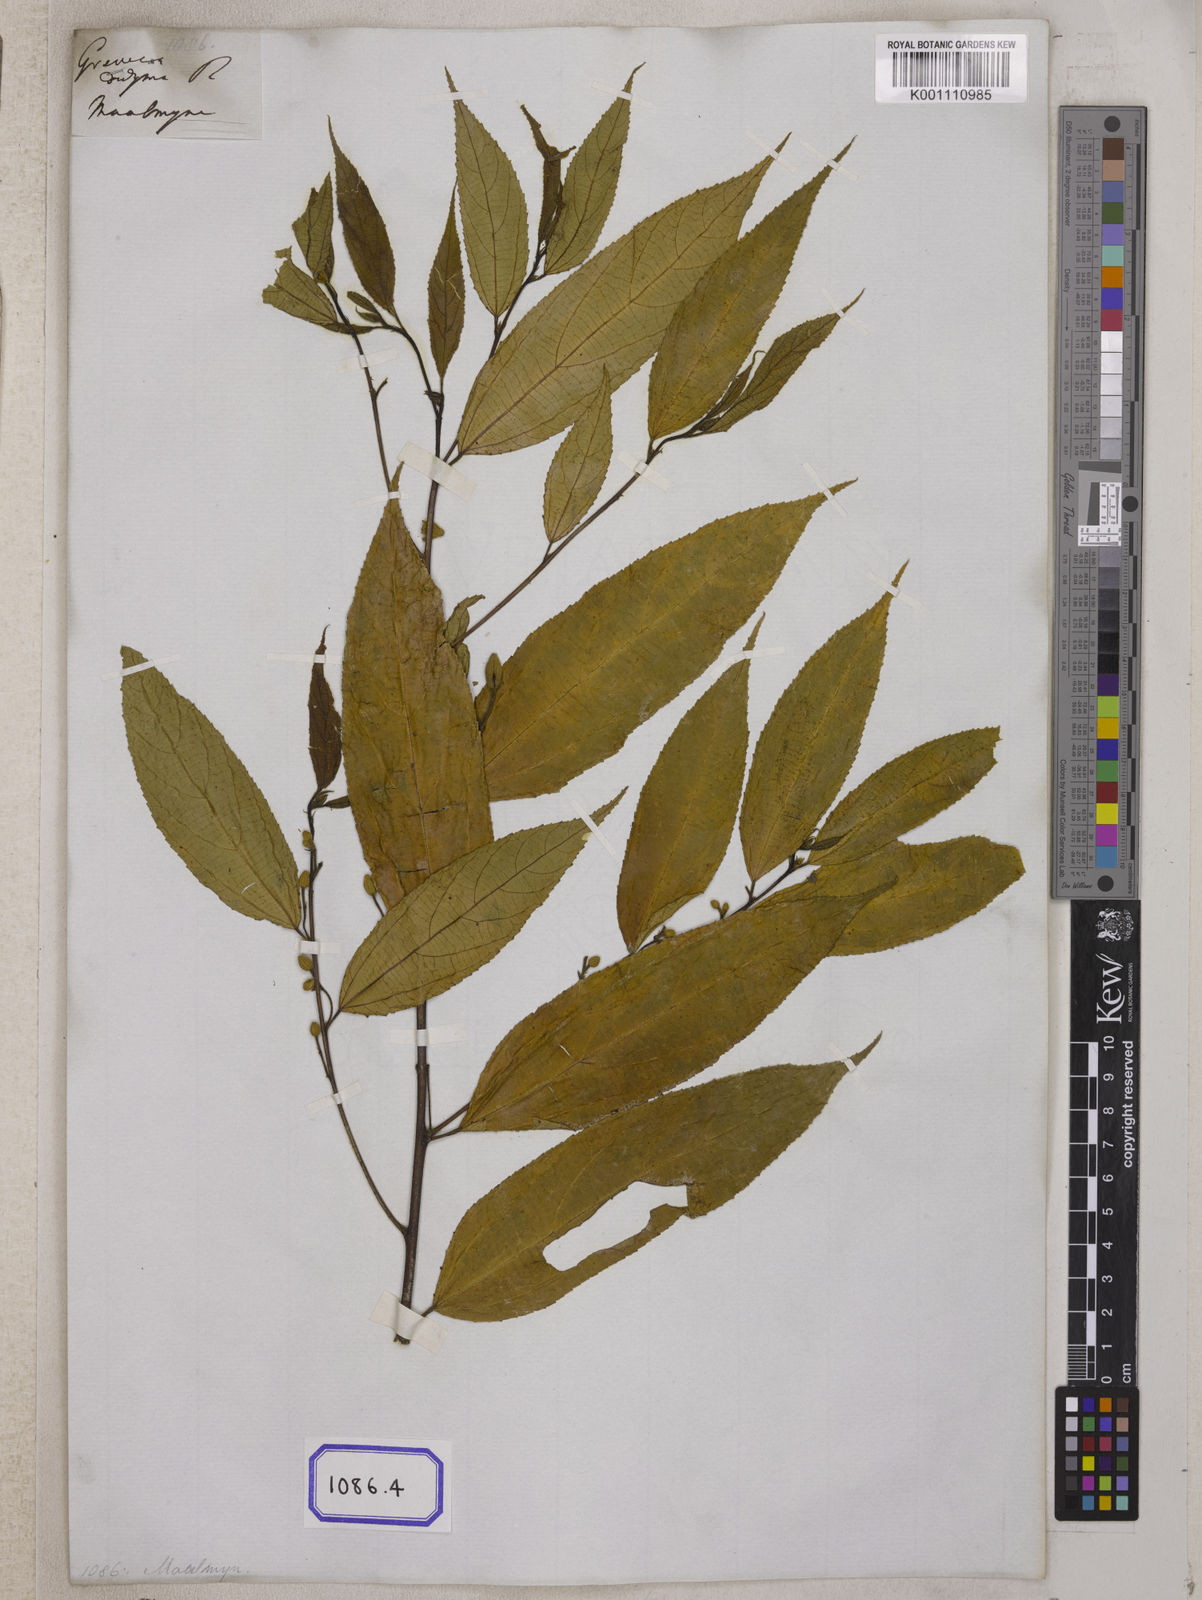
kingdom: Plantae
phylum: Tracheophyta
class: Magnoliopsida
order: Malvales
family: Malvaceae
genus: Grewia
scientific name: Grewia
